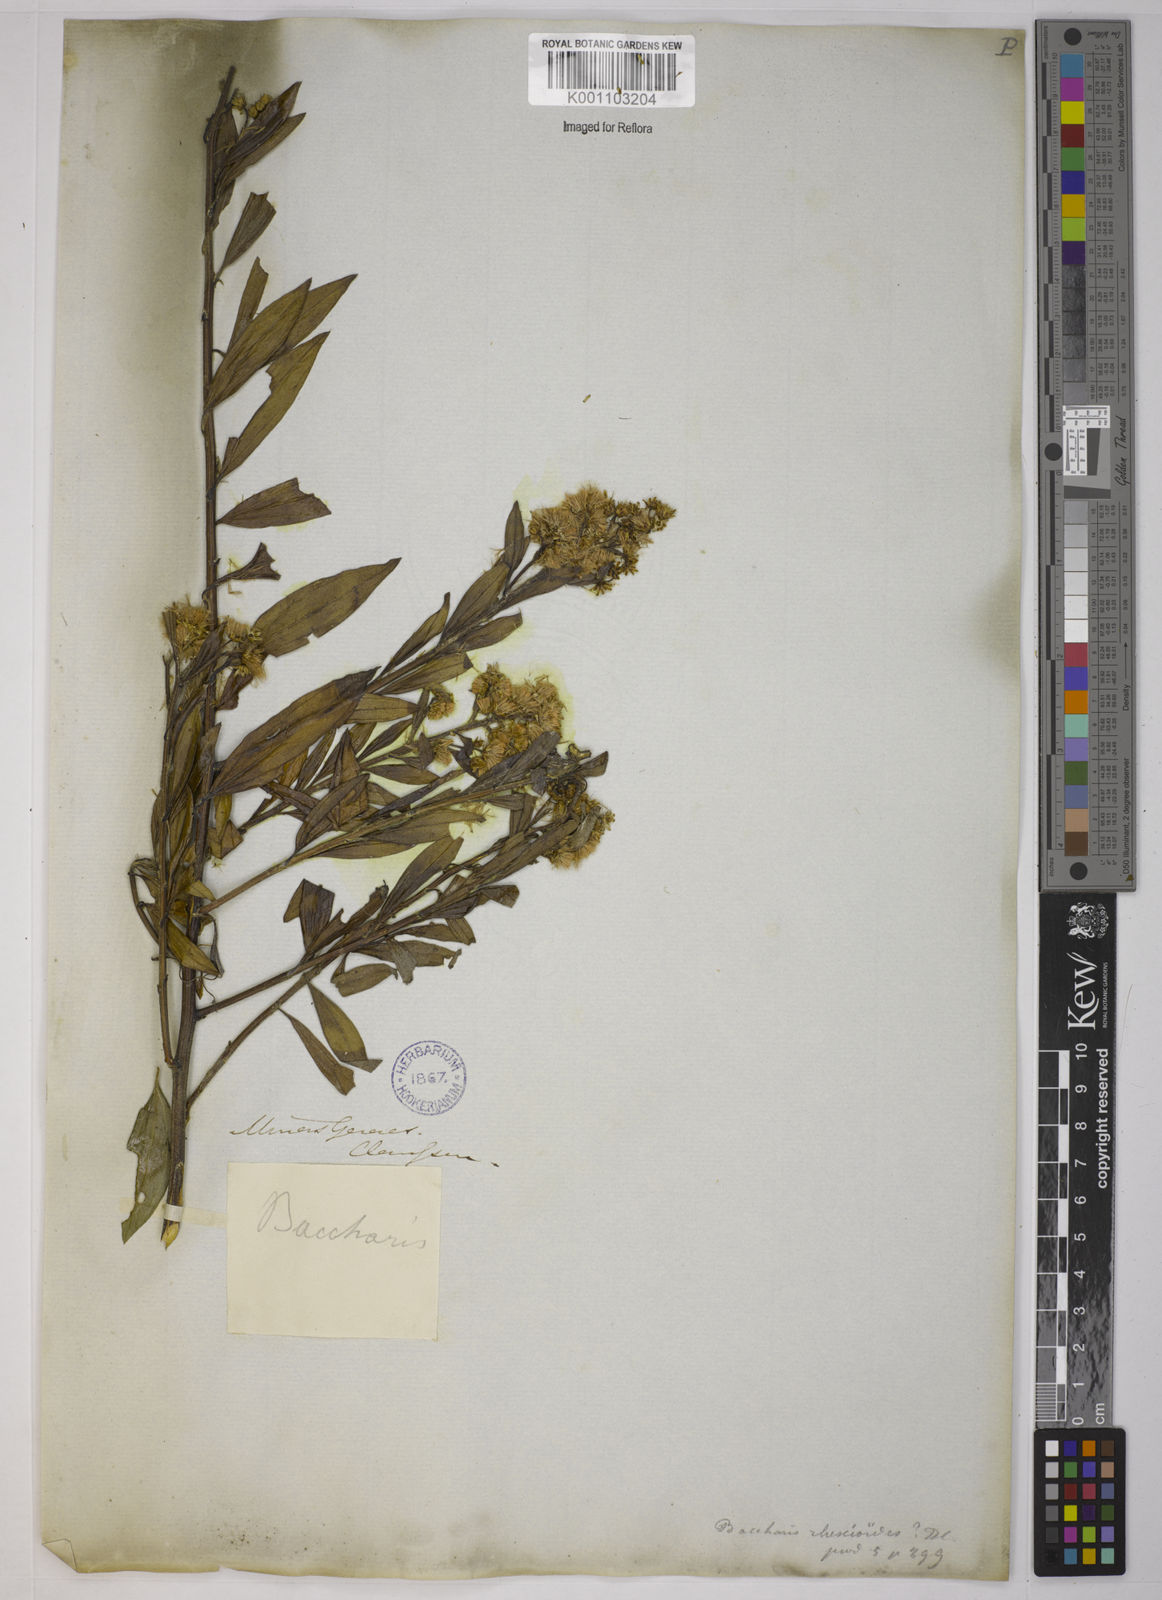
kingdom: Plantae
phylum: Tracheophyta
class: Magnoliopsida
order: Asterales
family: Asteraceae
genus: Baccharis
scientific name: Baccharis trinervis
